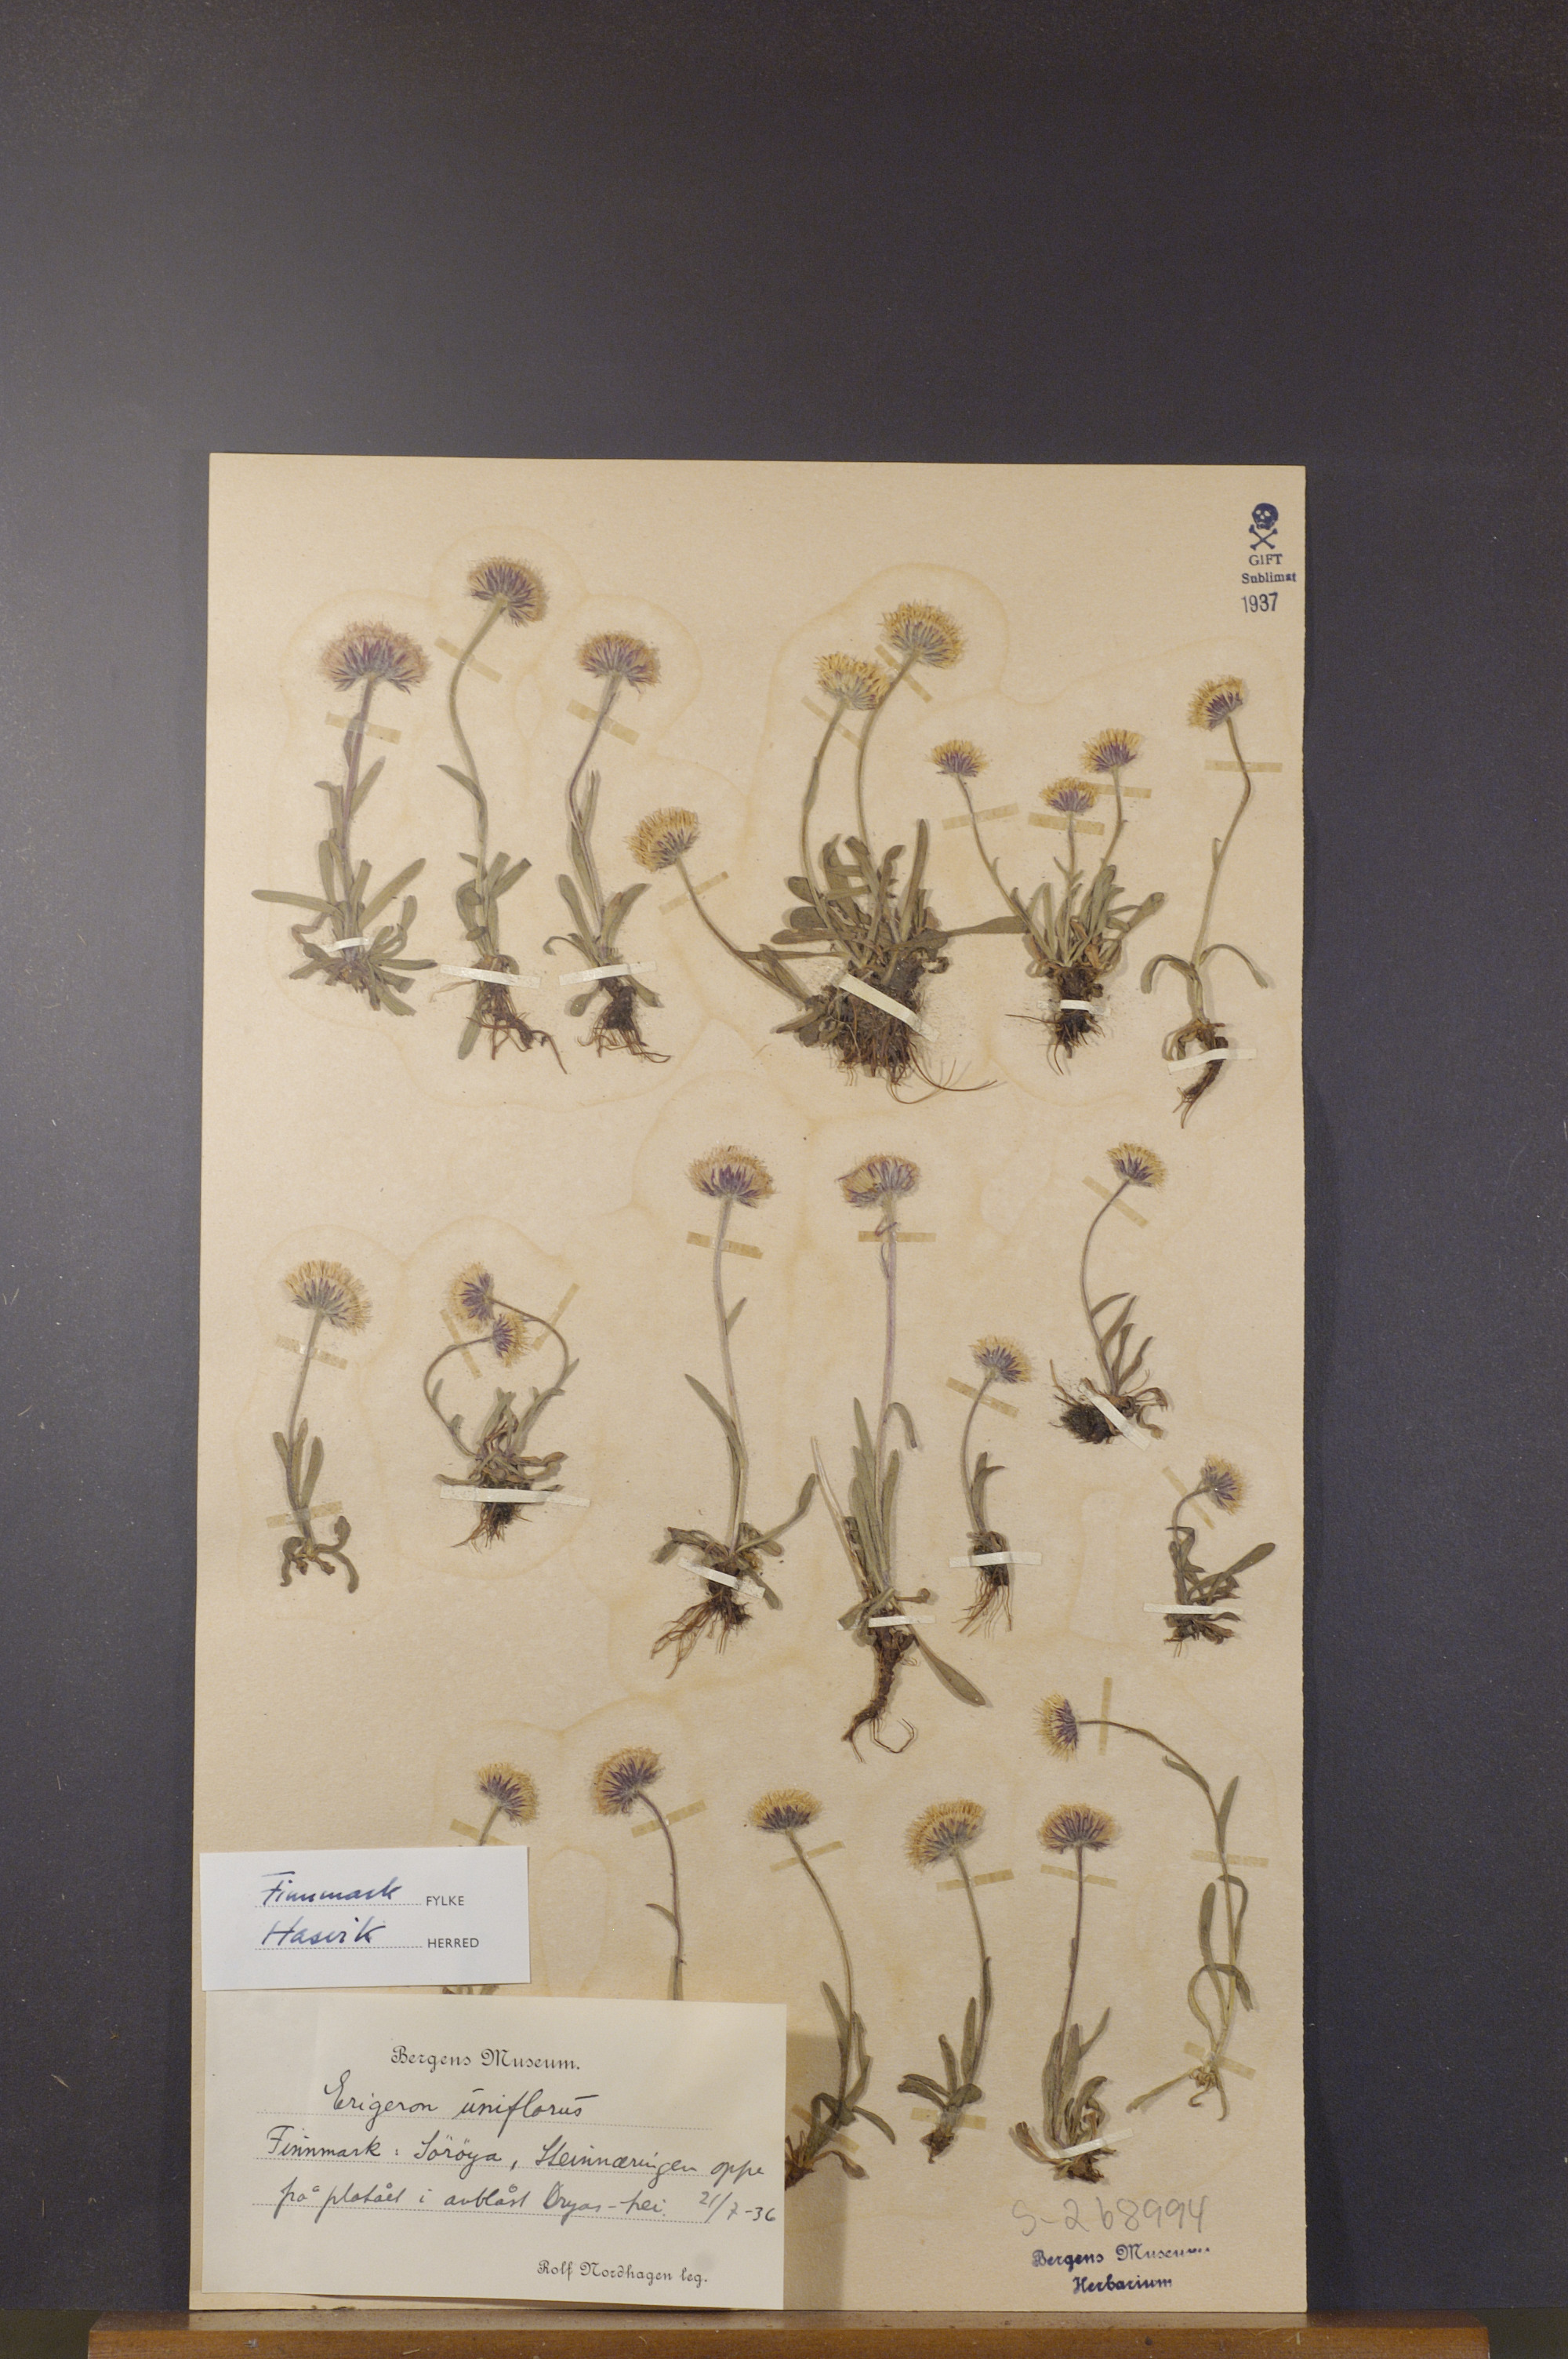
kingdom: Plantae
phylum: Tracheophyta
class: Magnoliopsida
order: Asterales
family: Asteraceae
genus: Erigeron
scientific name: Erigeron uniflorus
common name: Northern daisy
